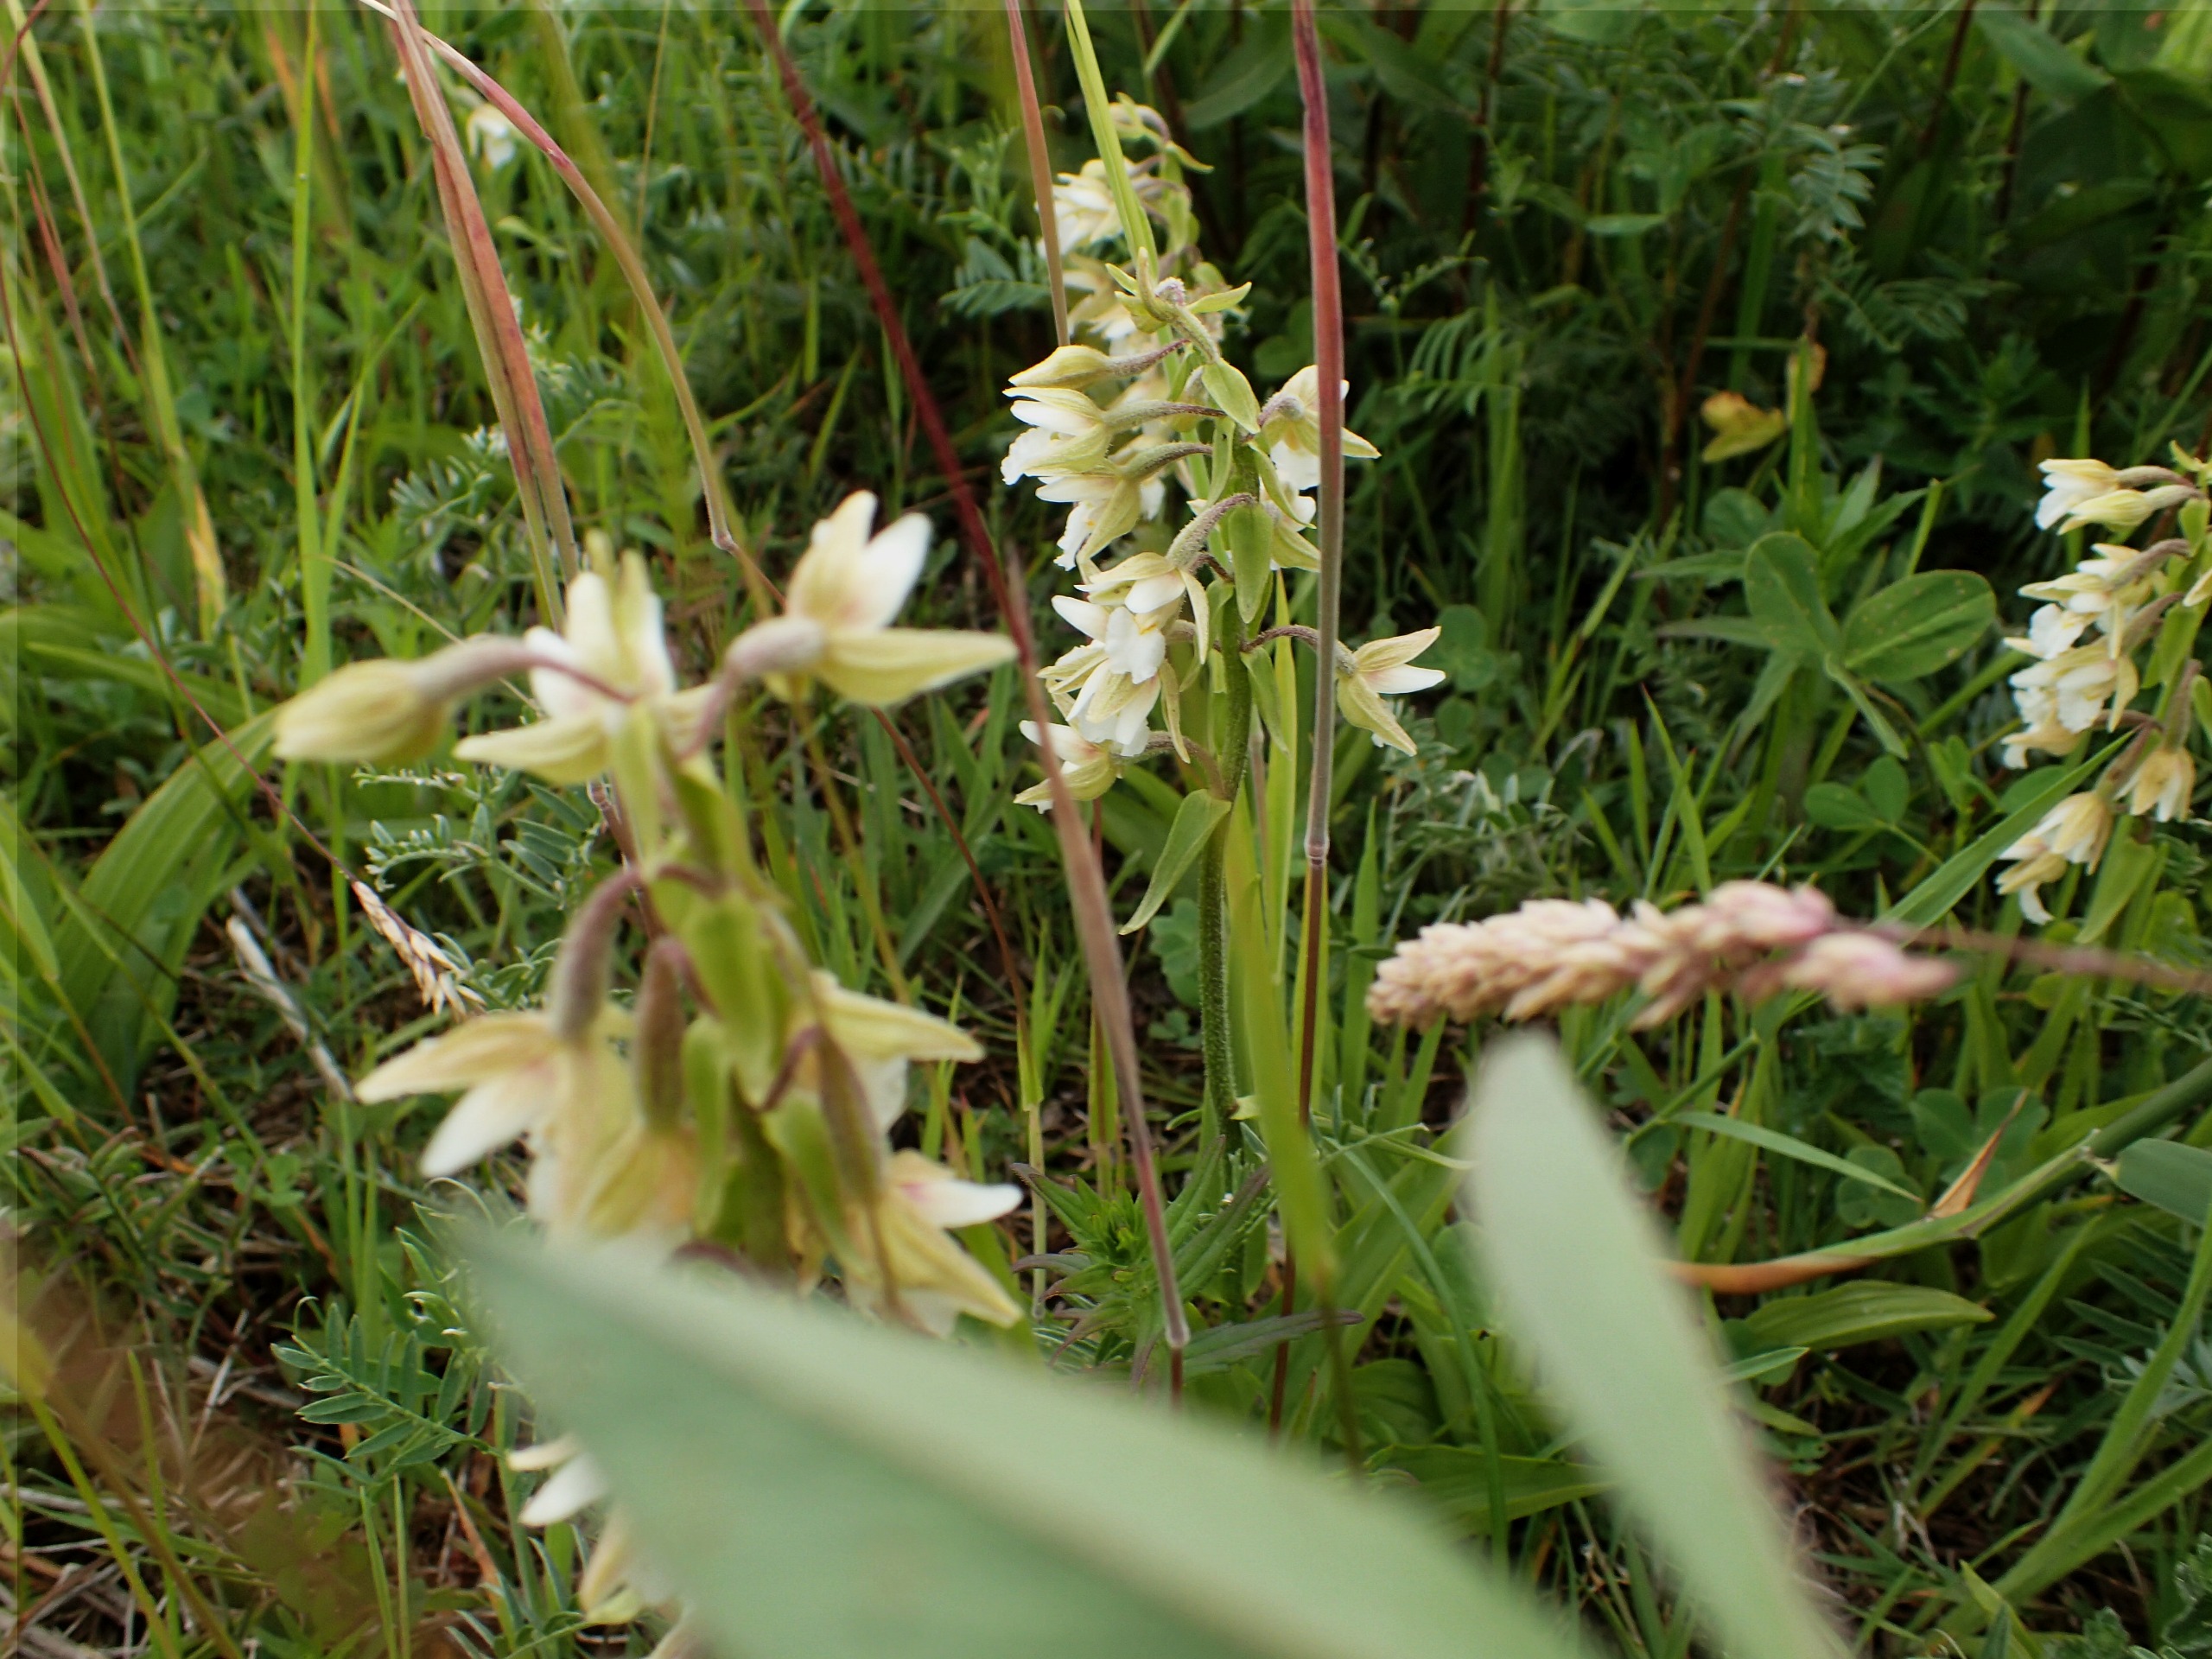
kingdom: Plantae
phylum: Tracheophyta
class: Liliopsida
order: Asparagales
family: Orchidaceae
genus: Epipactis
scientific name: Epipactis palustris
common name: Sump-hullæbe
